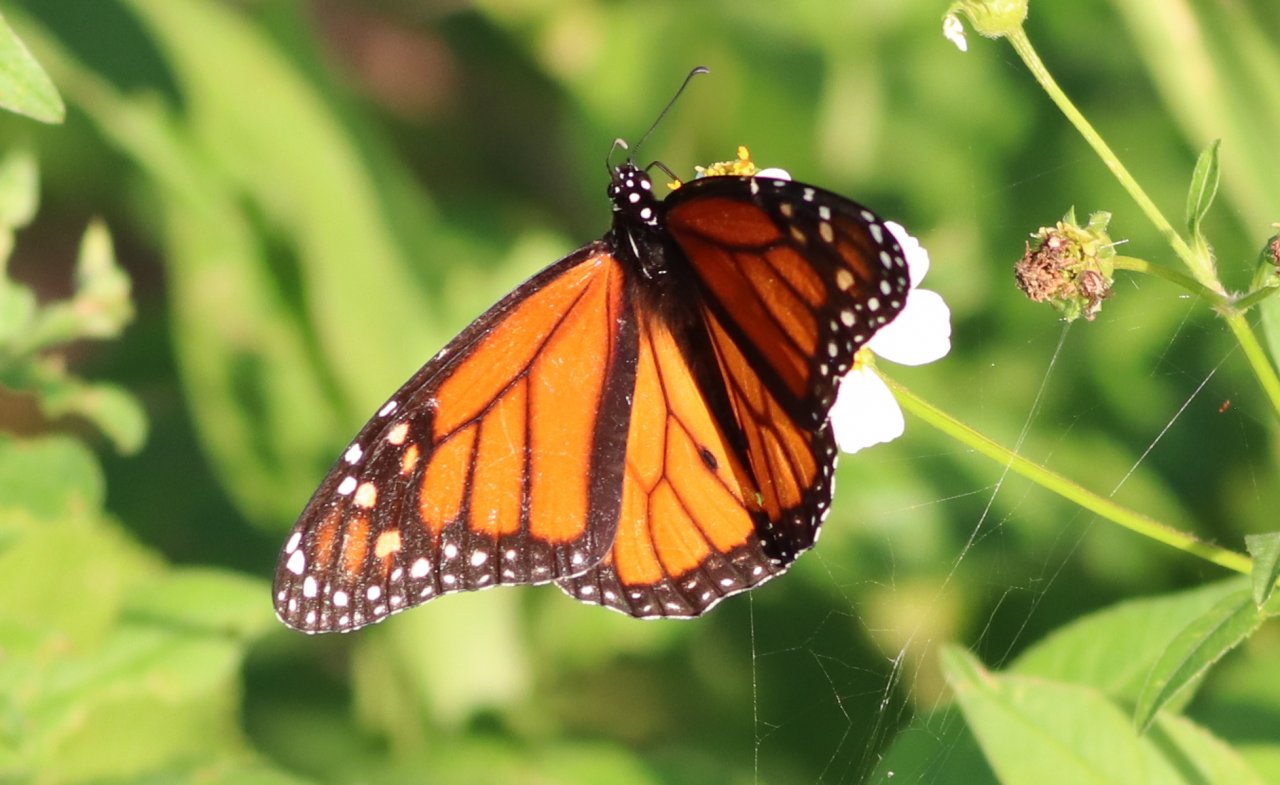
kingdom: Animalia
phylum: Arthropoda
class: Insecta
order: Lepidoptera
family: Nymphalidae
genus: Danaus
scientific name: Danaus plexippus
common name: Monarch
